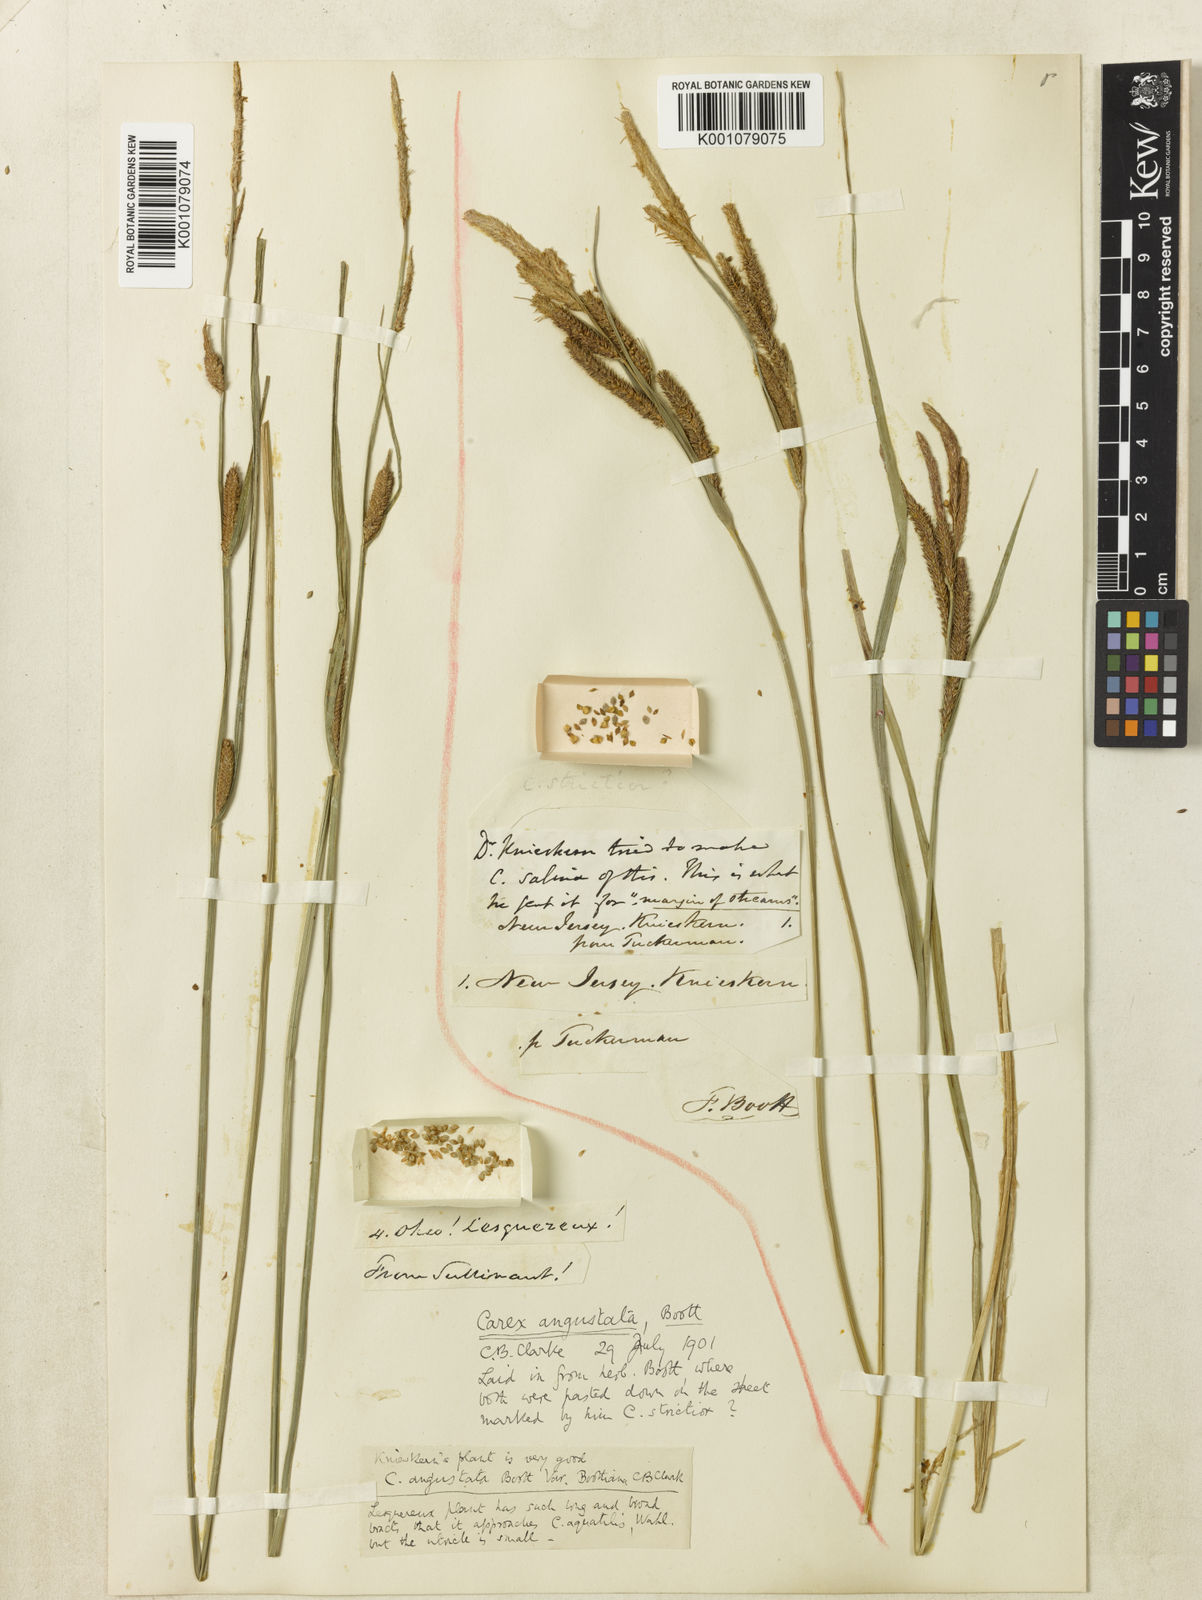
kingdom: Plantae
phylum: Tracheophyta
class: Liliopsida
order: Poales
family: Cyperaceae
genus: Carex
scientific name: Carex
